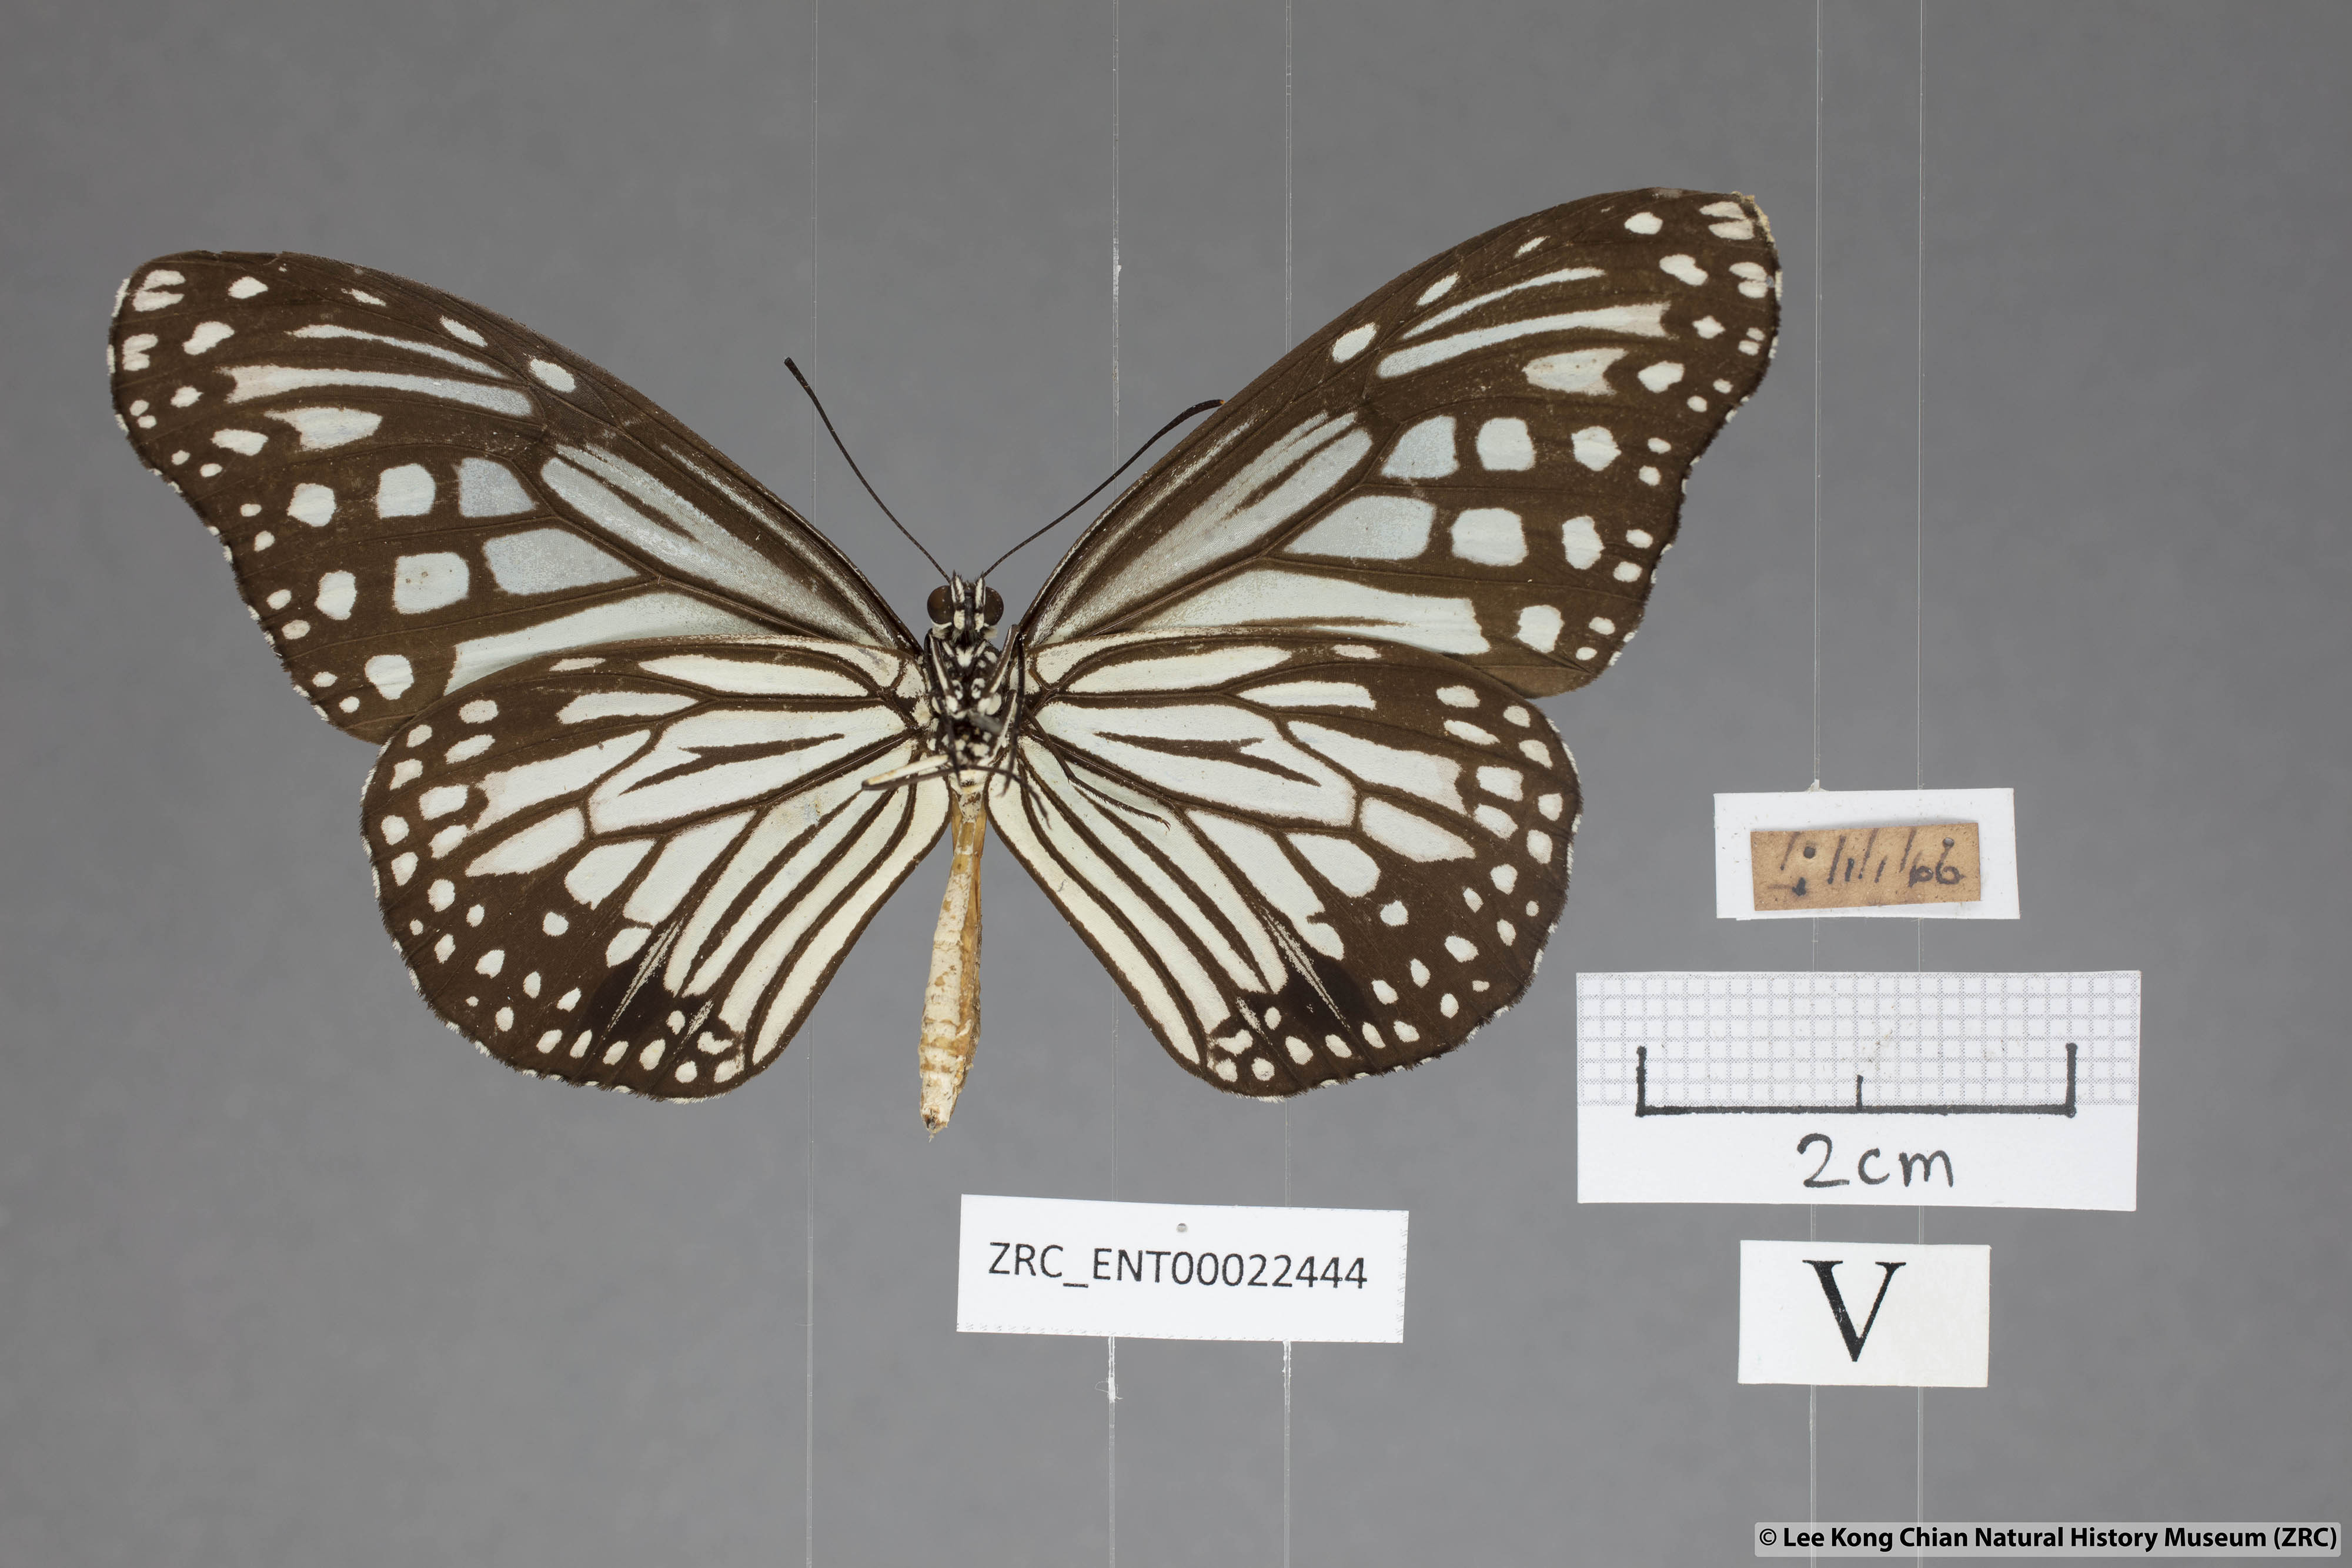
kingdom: Animalia
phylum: Arthropoda
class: Insecta
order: Lepidoptera
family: Nymphalidae
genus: Parantica
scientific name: Parantica aglea
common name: Glassy tiger
